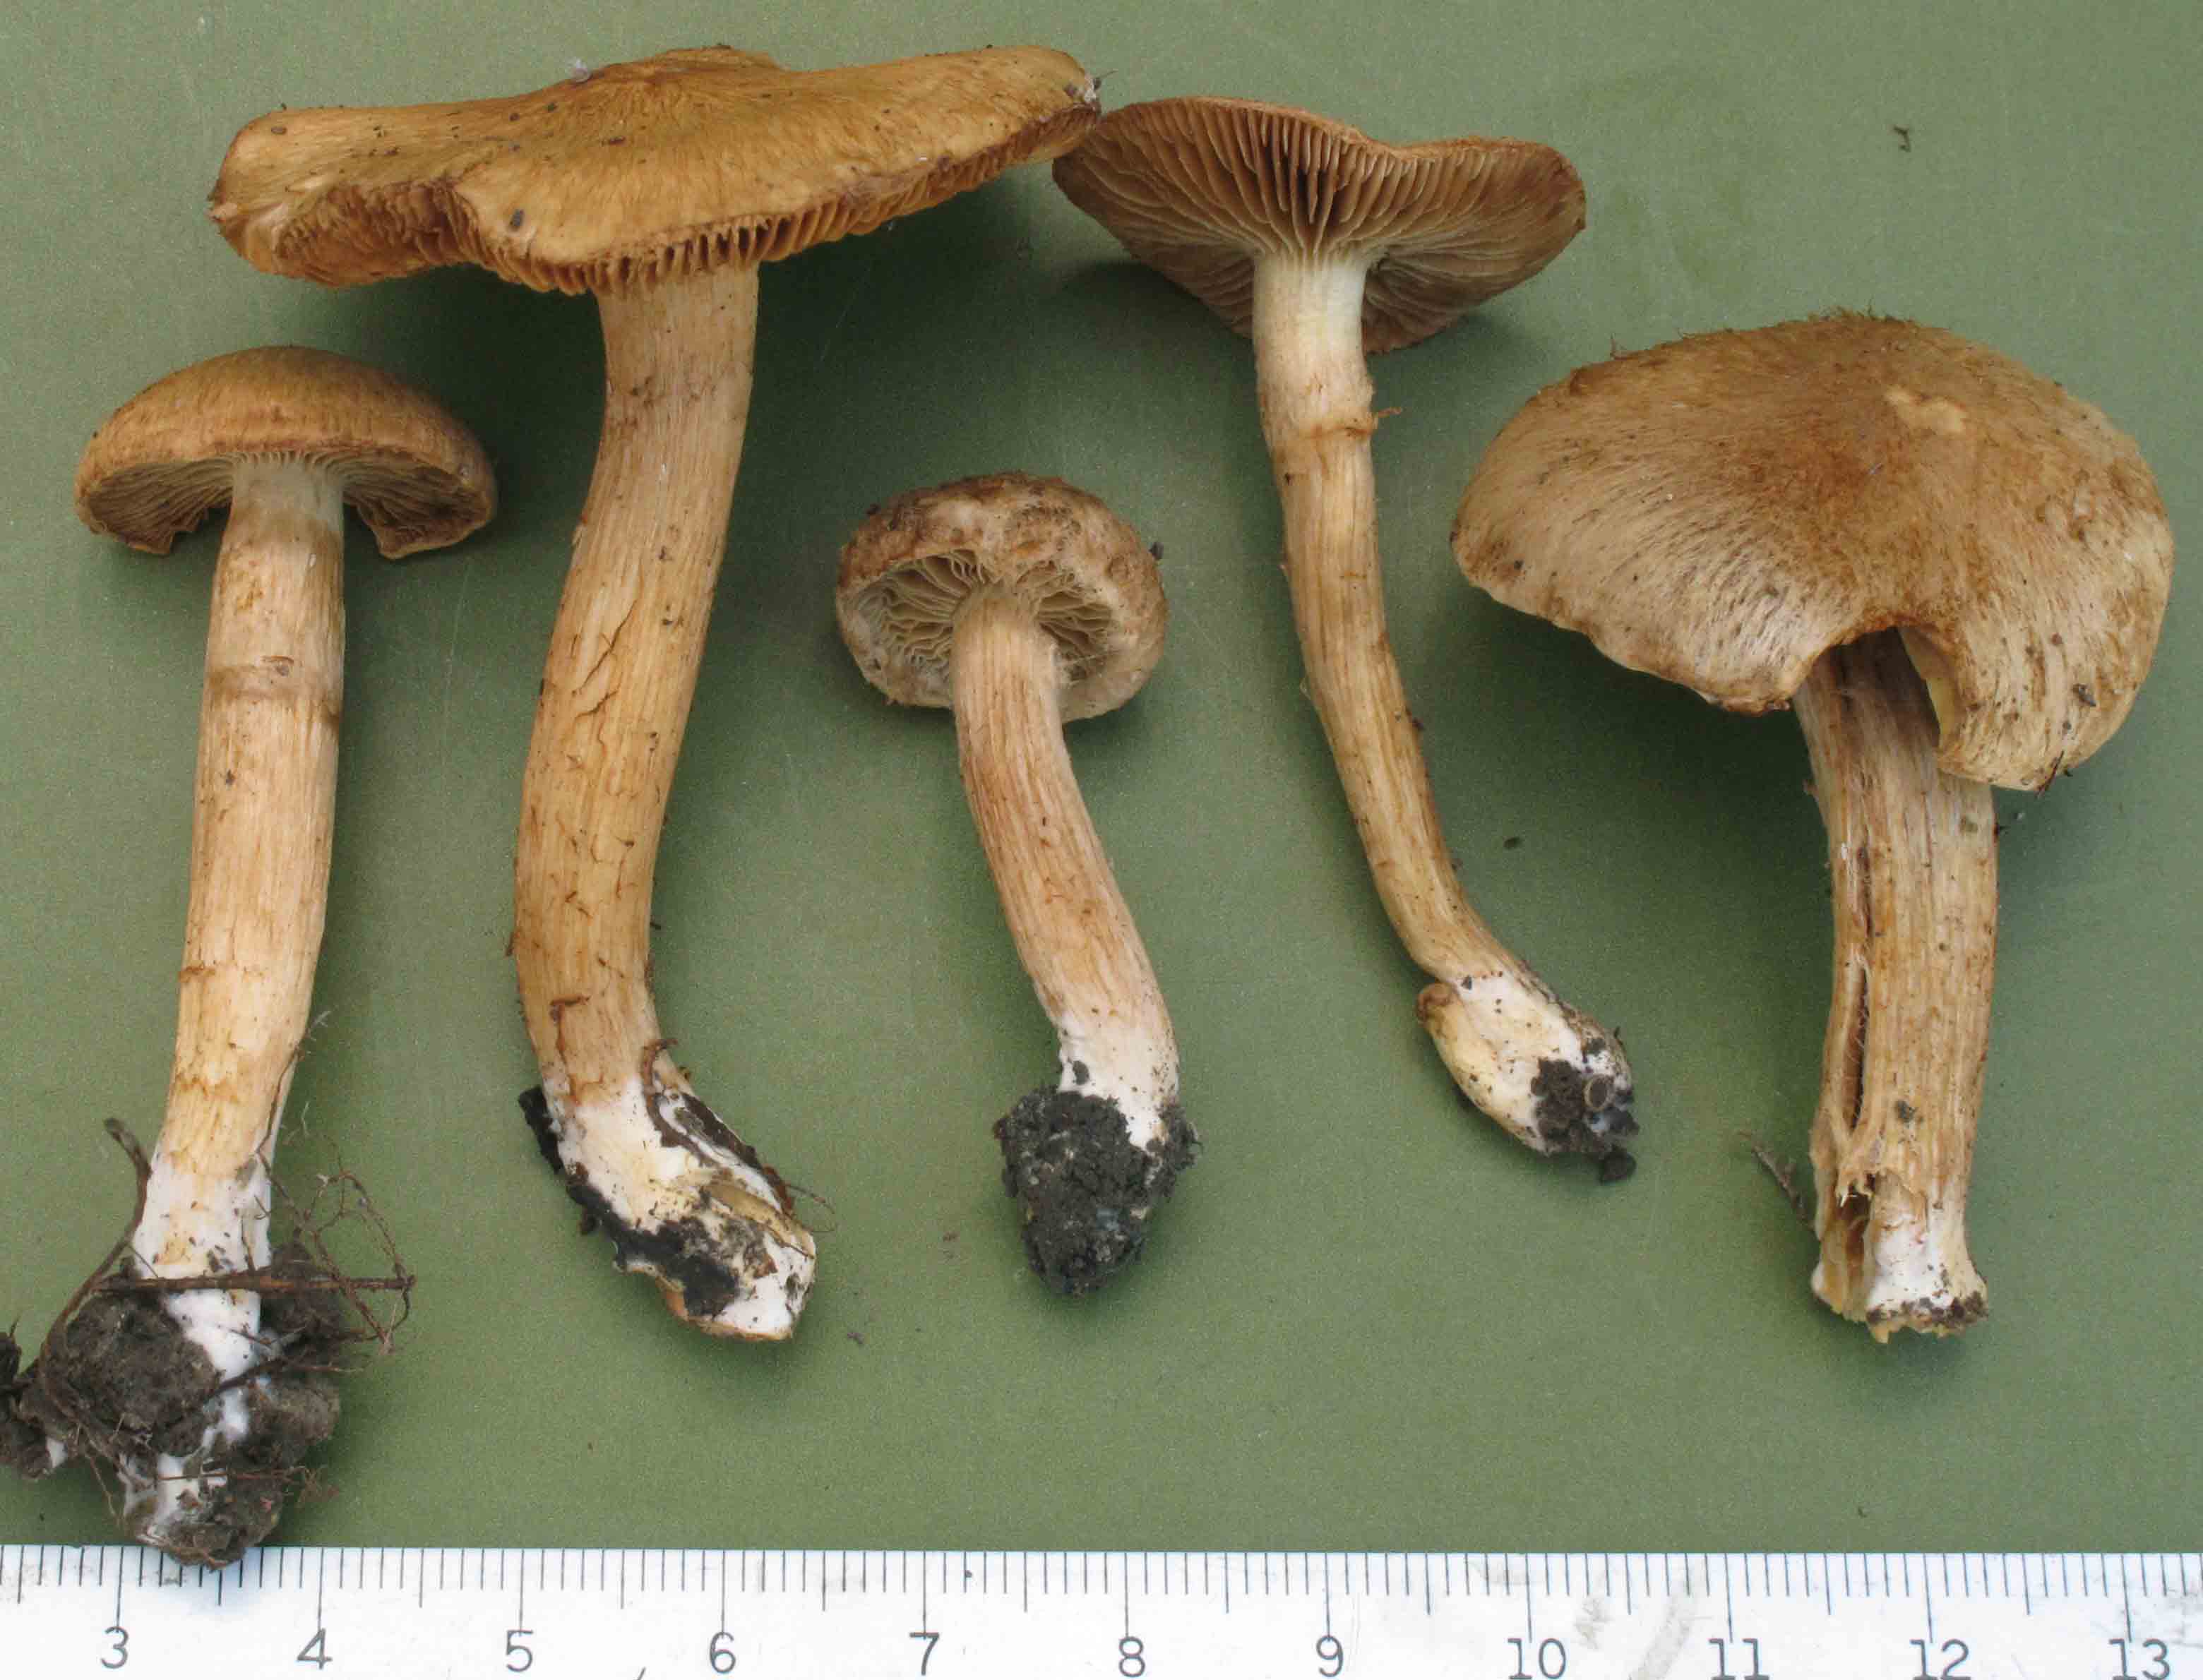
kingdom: Fungi
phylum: Basidiomycota
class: Agaricomycetes
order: Agaricales
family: Inocybaceae
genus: Mallocybe
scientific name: Mallocybe agardhii
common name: Agardhs trævlhat
